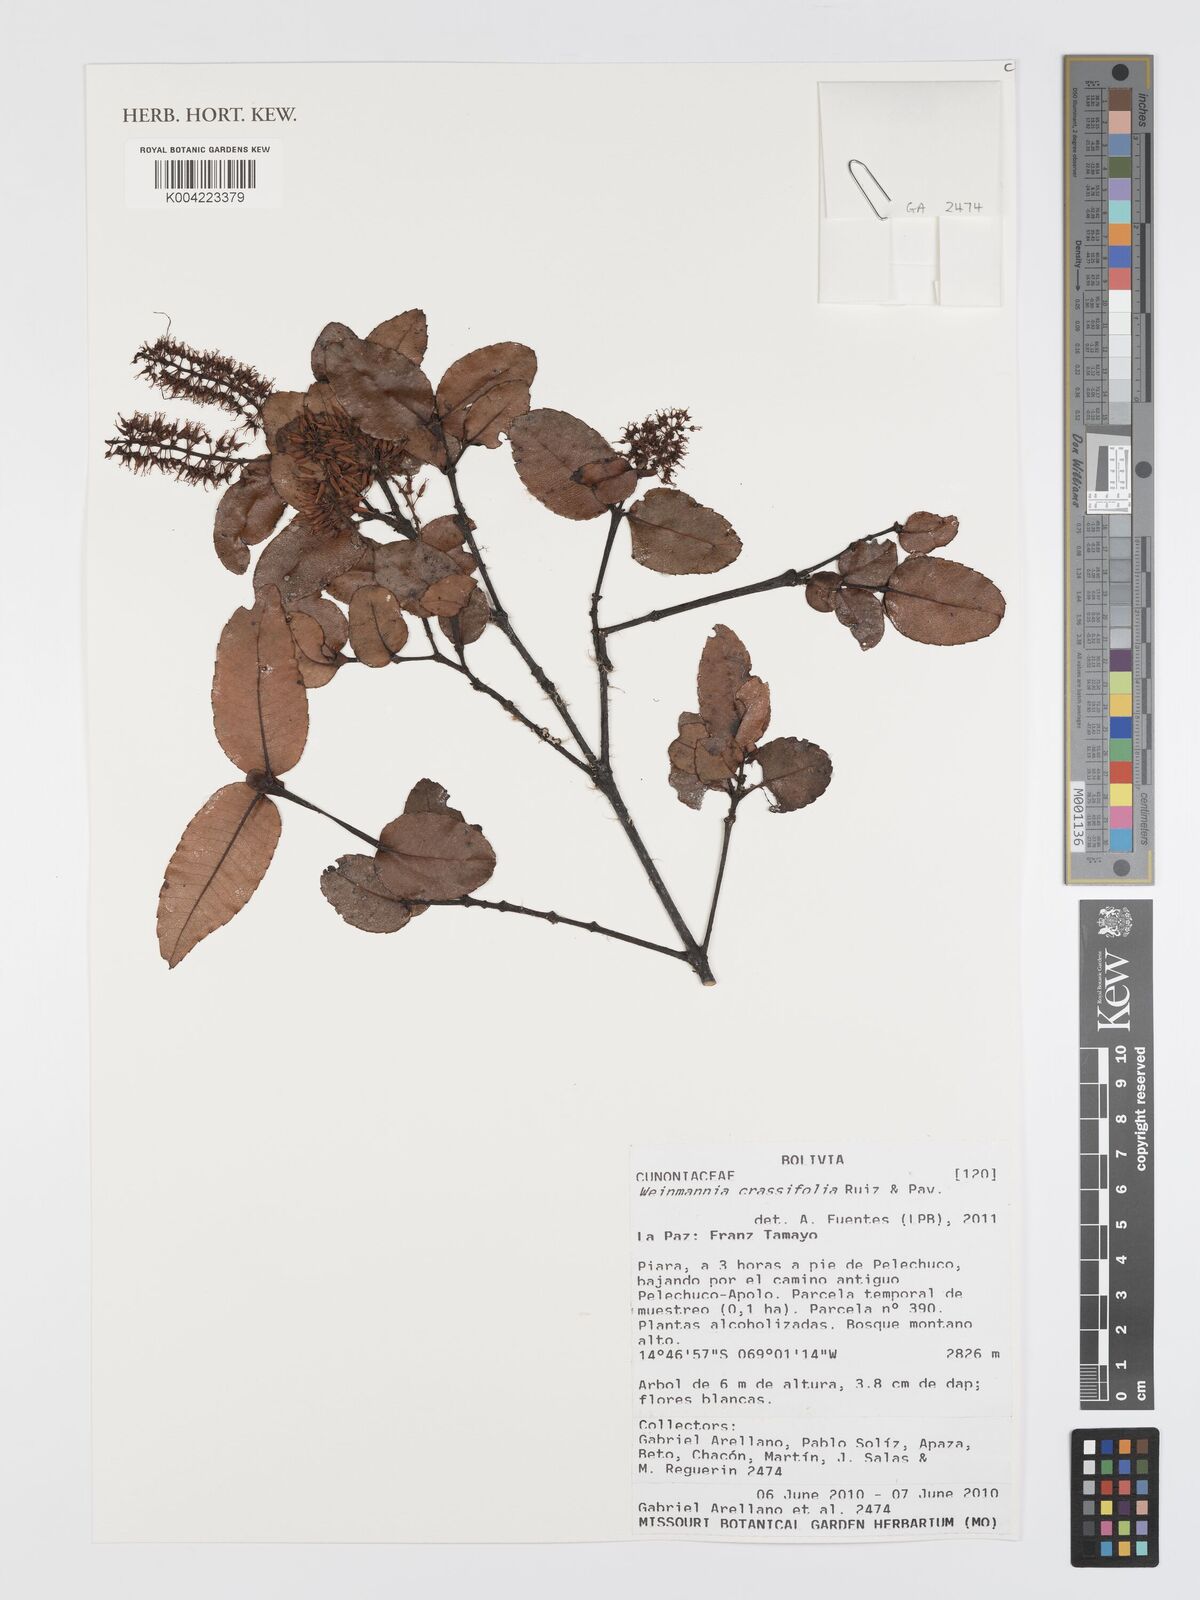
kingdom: Plantae
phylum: Tracheophyta
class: Magnoliopsida
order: Oxalidales
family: Cunoniaceae
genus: Weinmannia
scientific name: Weinmannia crassifolia
